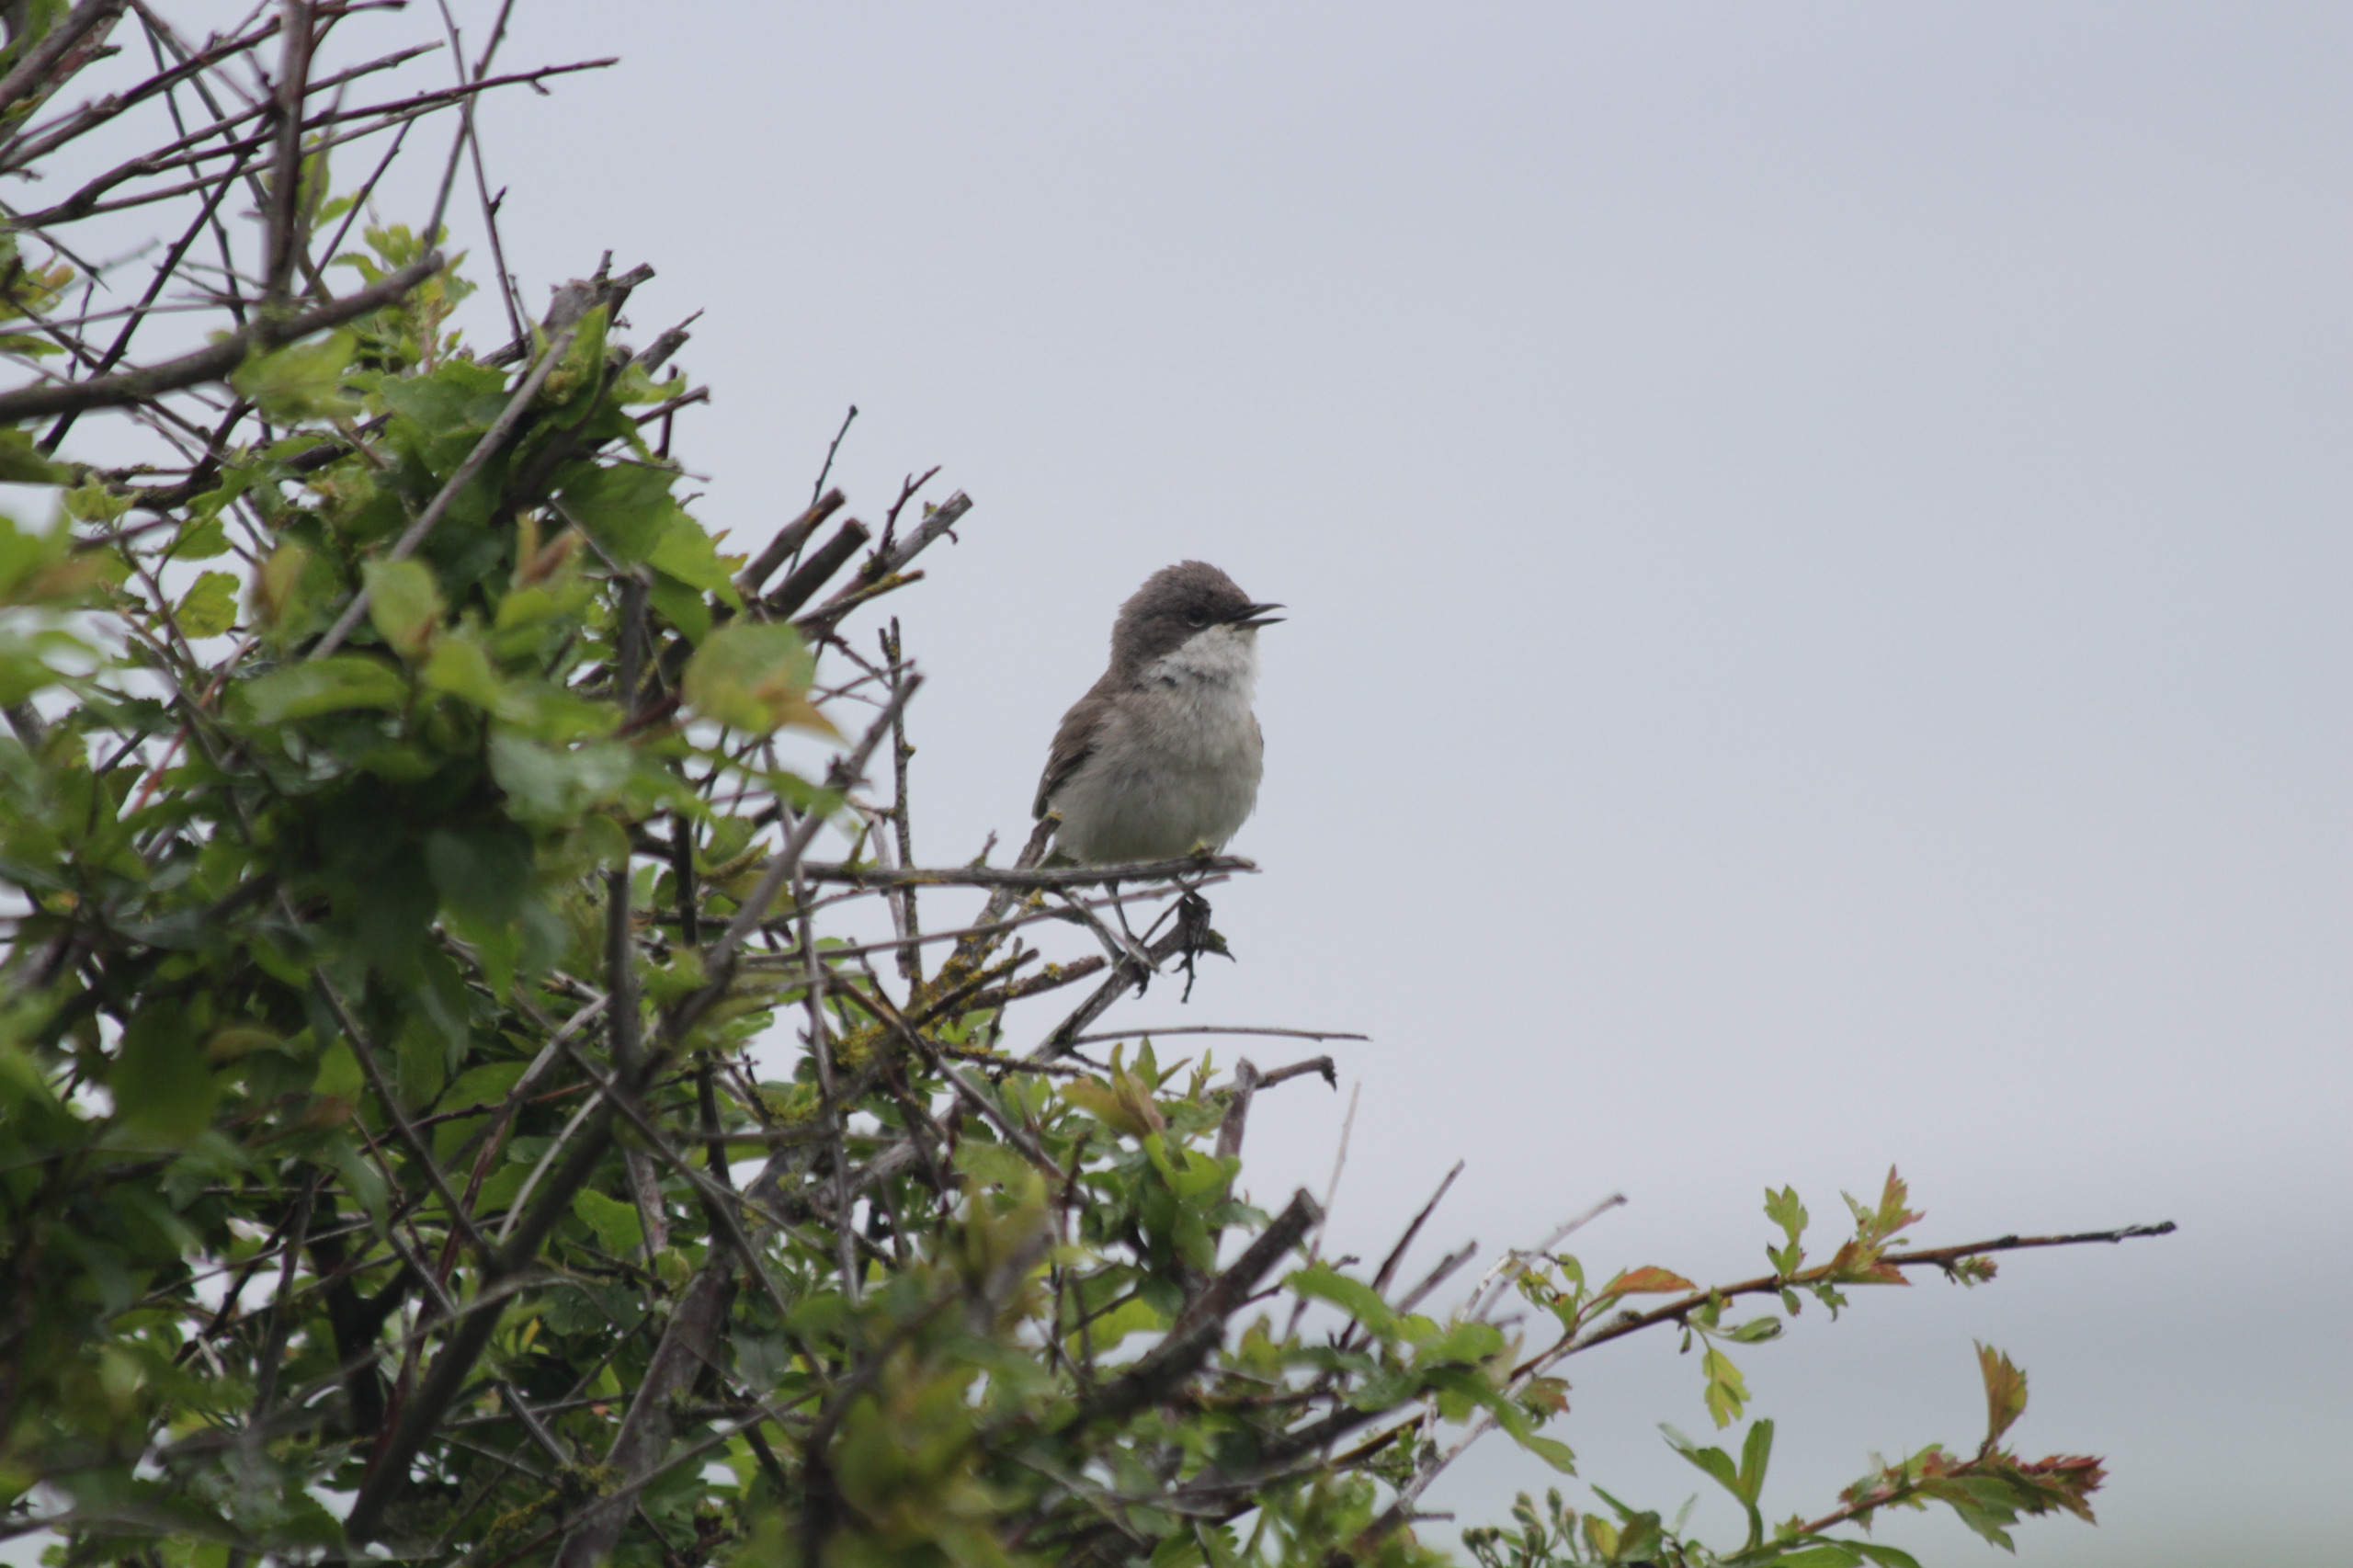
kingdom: Animalia
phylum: Chordata
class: Aves
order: Passeriformes
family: Sylviidae
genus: Sylvia
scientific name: Sylvia curruca
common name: Gærdesanger
